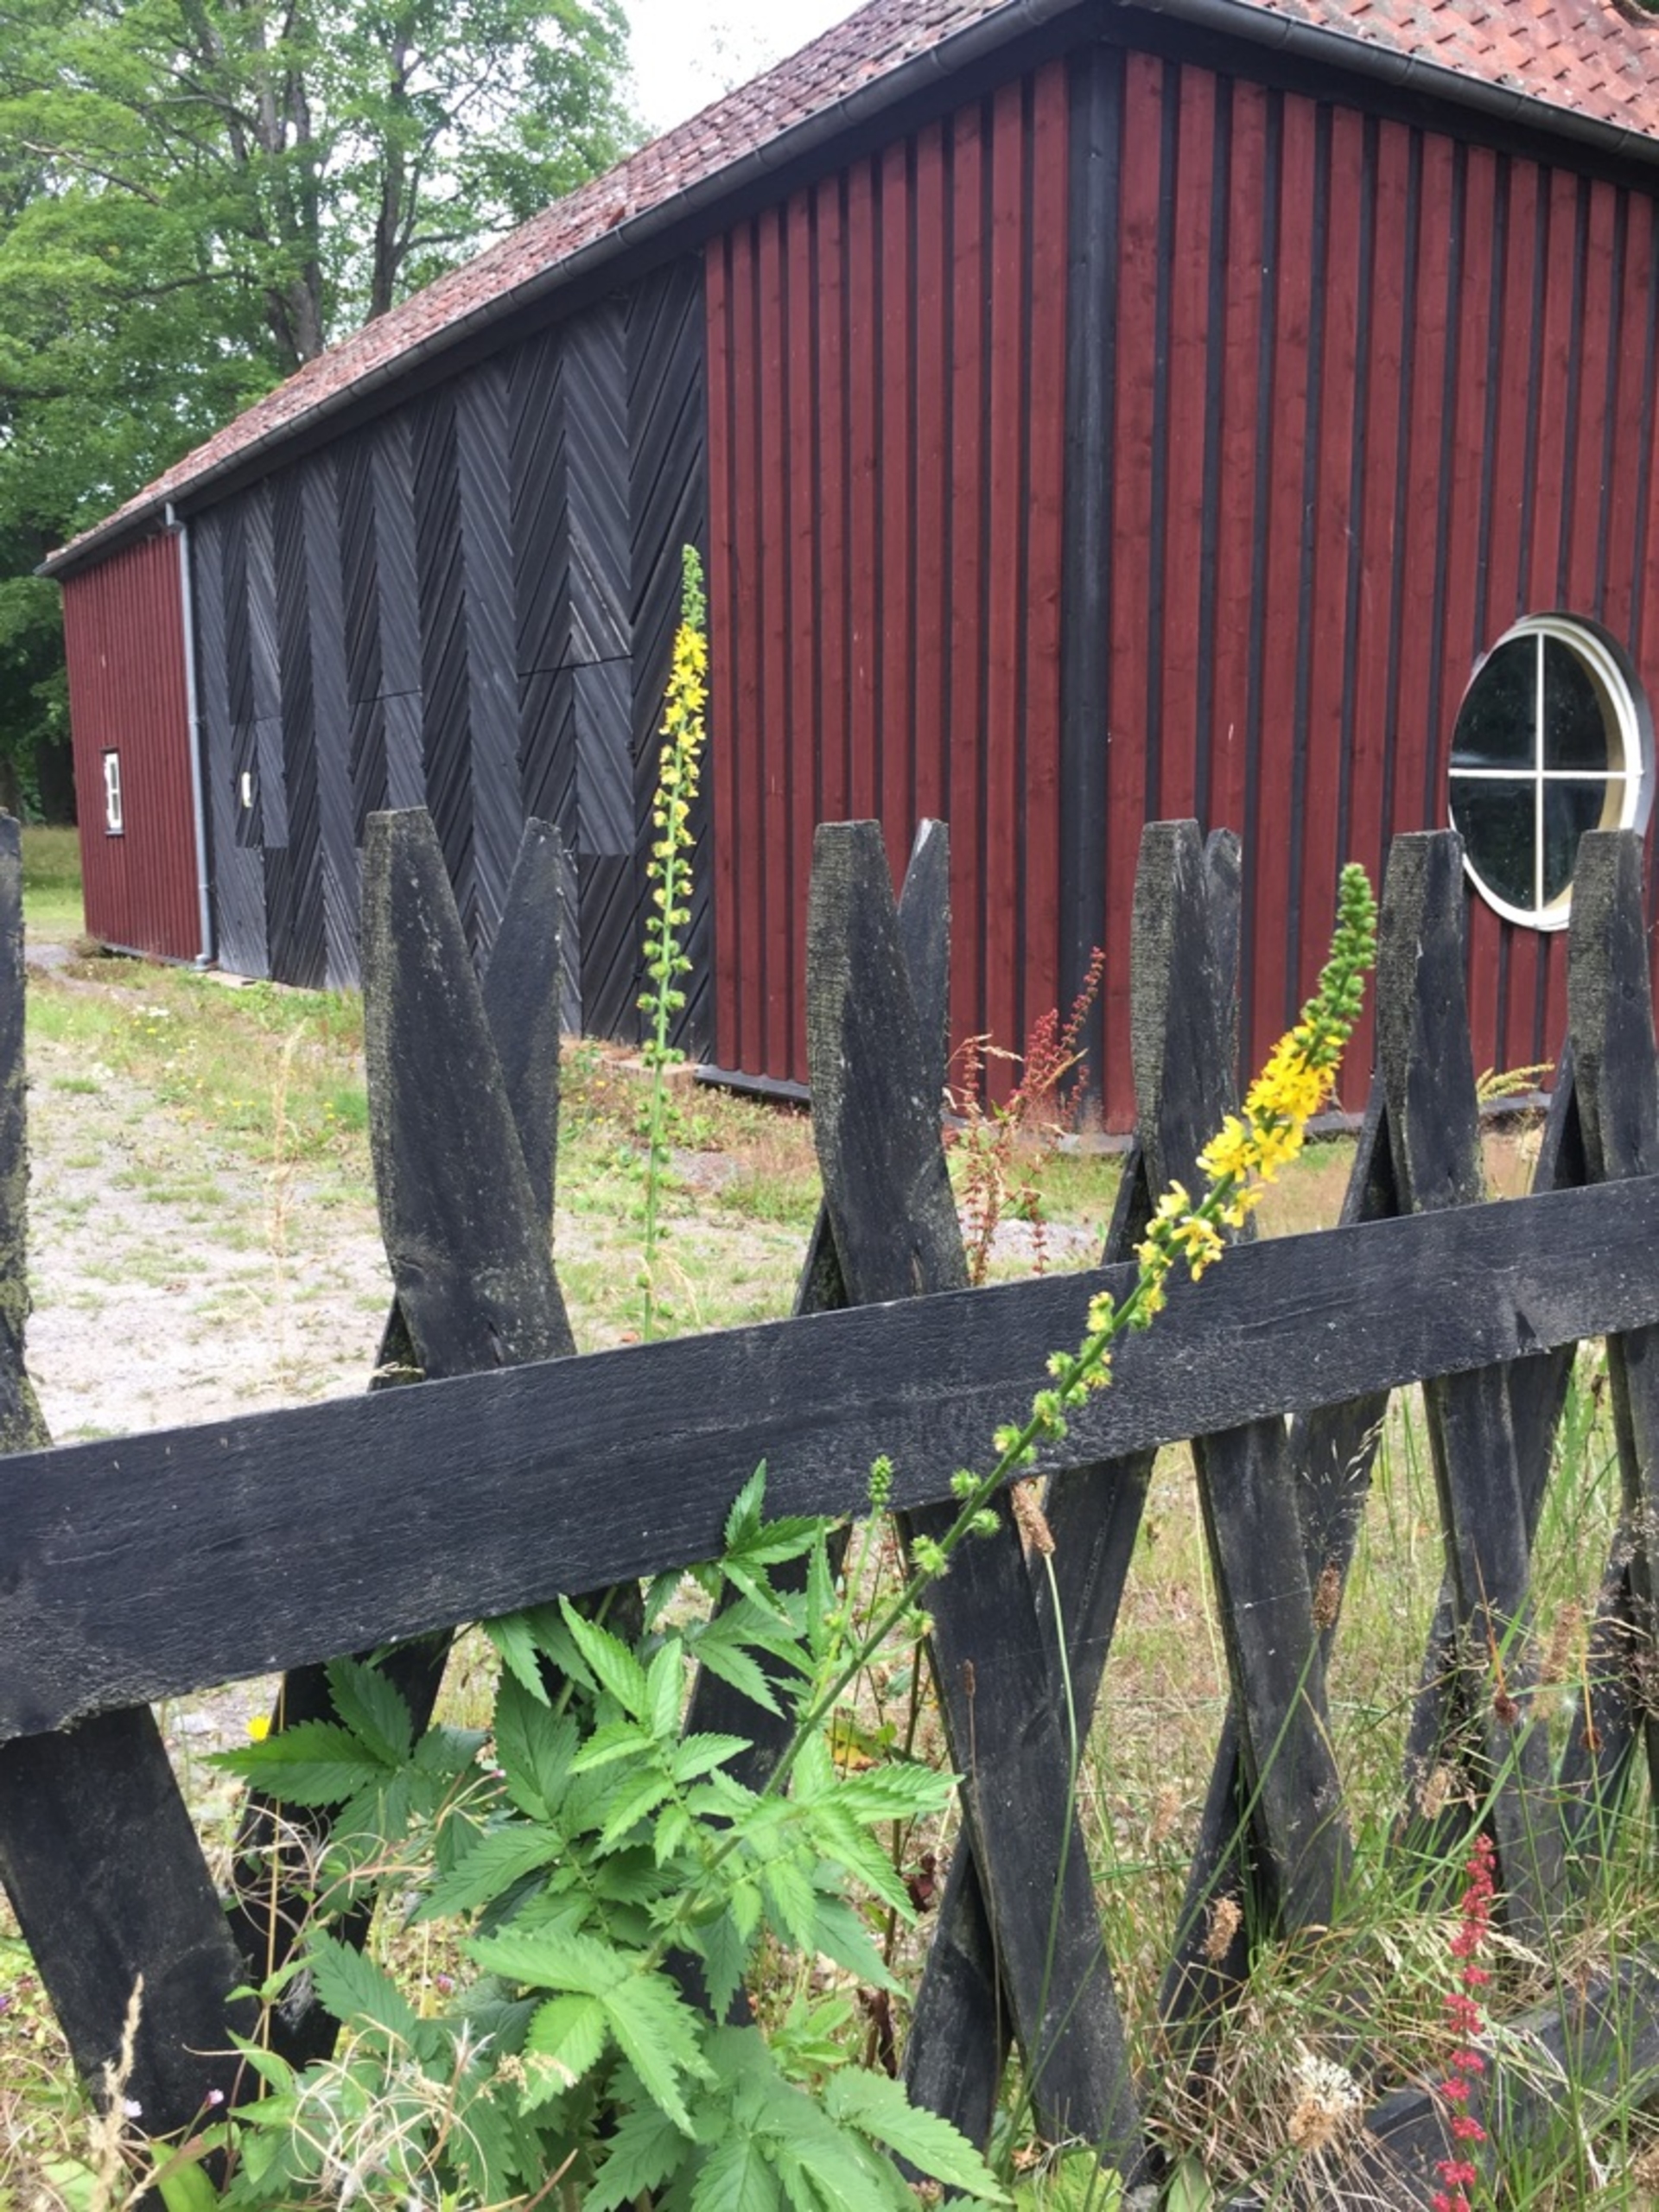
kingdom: Plantae
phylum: Tracheophyta
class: Magnoliopsida
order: Rosales
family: Rosaceae
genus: Agrimonia
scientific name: Agrimonia procera
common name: Vellugtende agermåne
